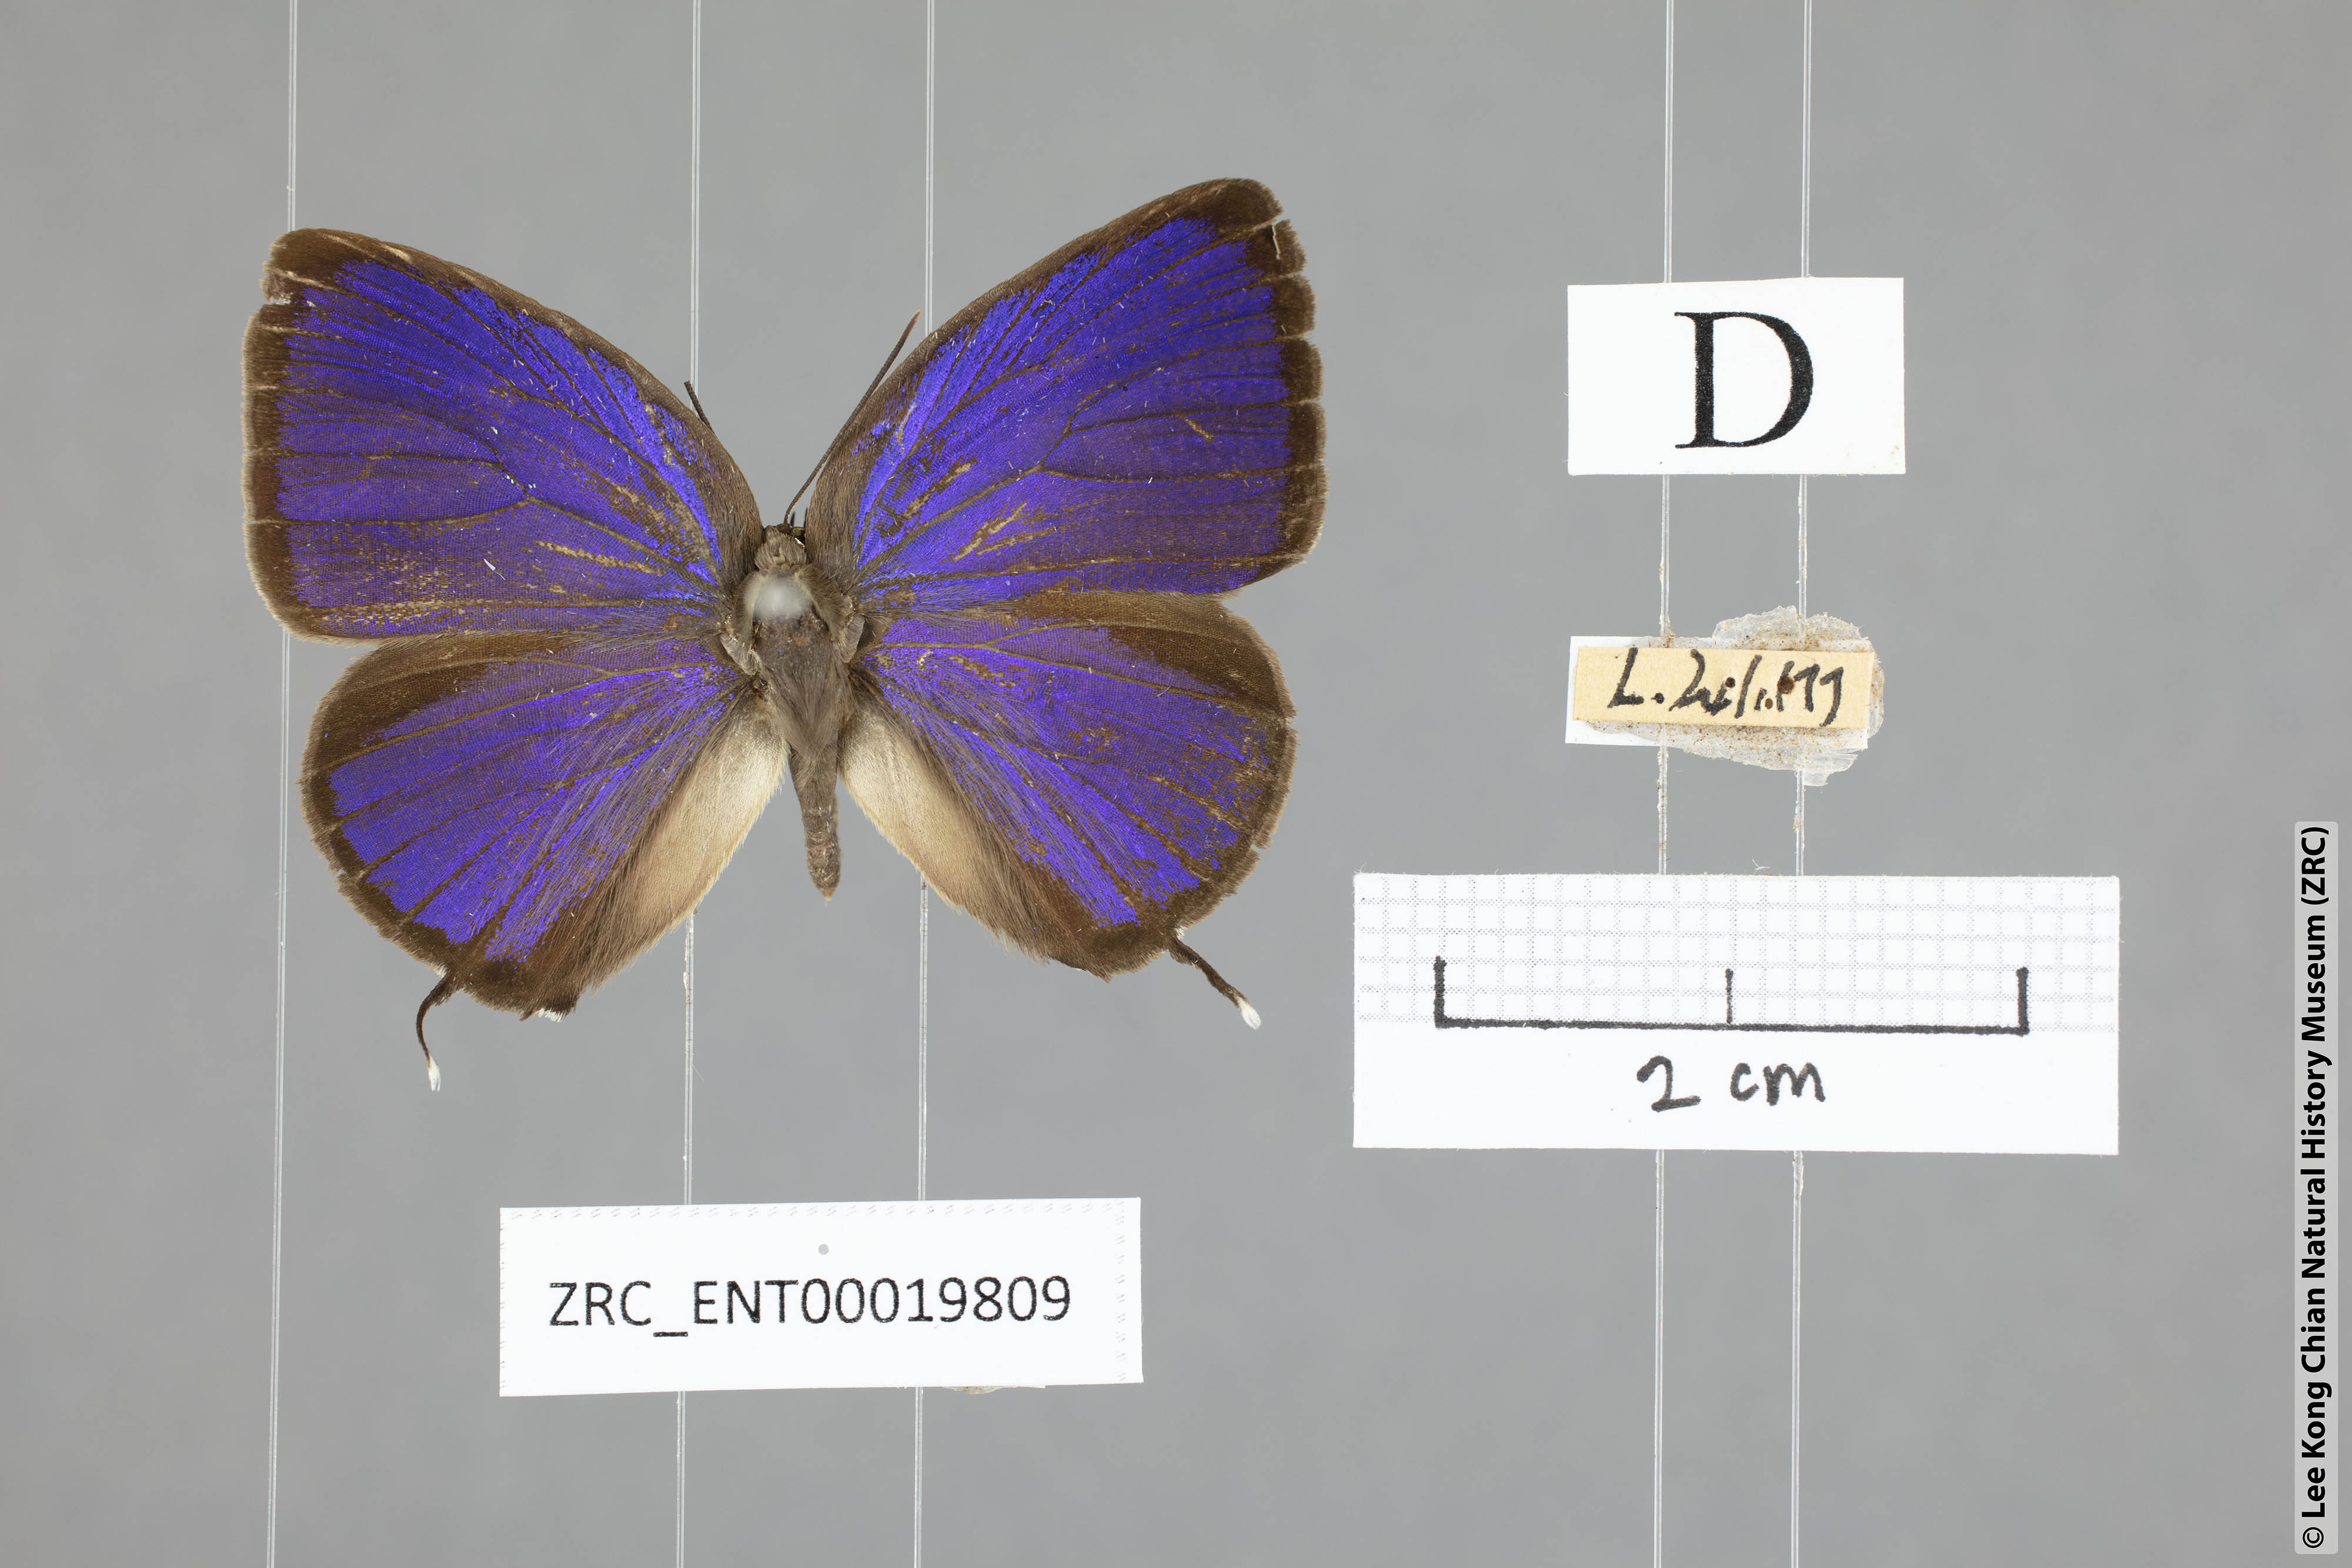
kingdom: Animalia
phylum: Arthropoda
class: Insecta
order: Lepidoptera
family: Lycaenidae
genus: Arhopala
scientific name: Arhopala pseudomuta
